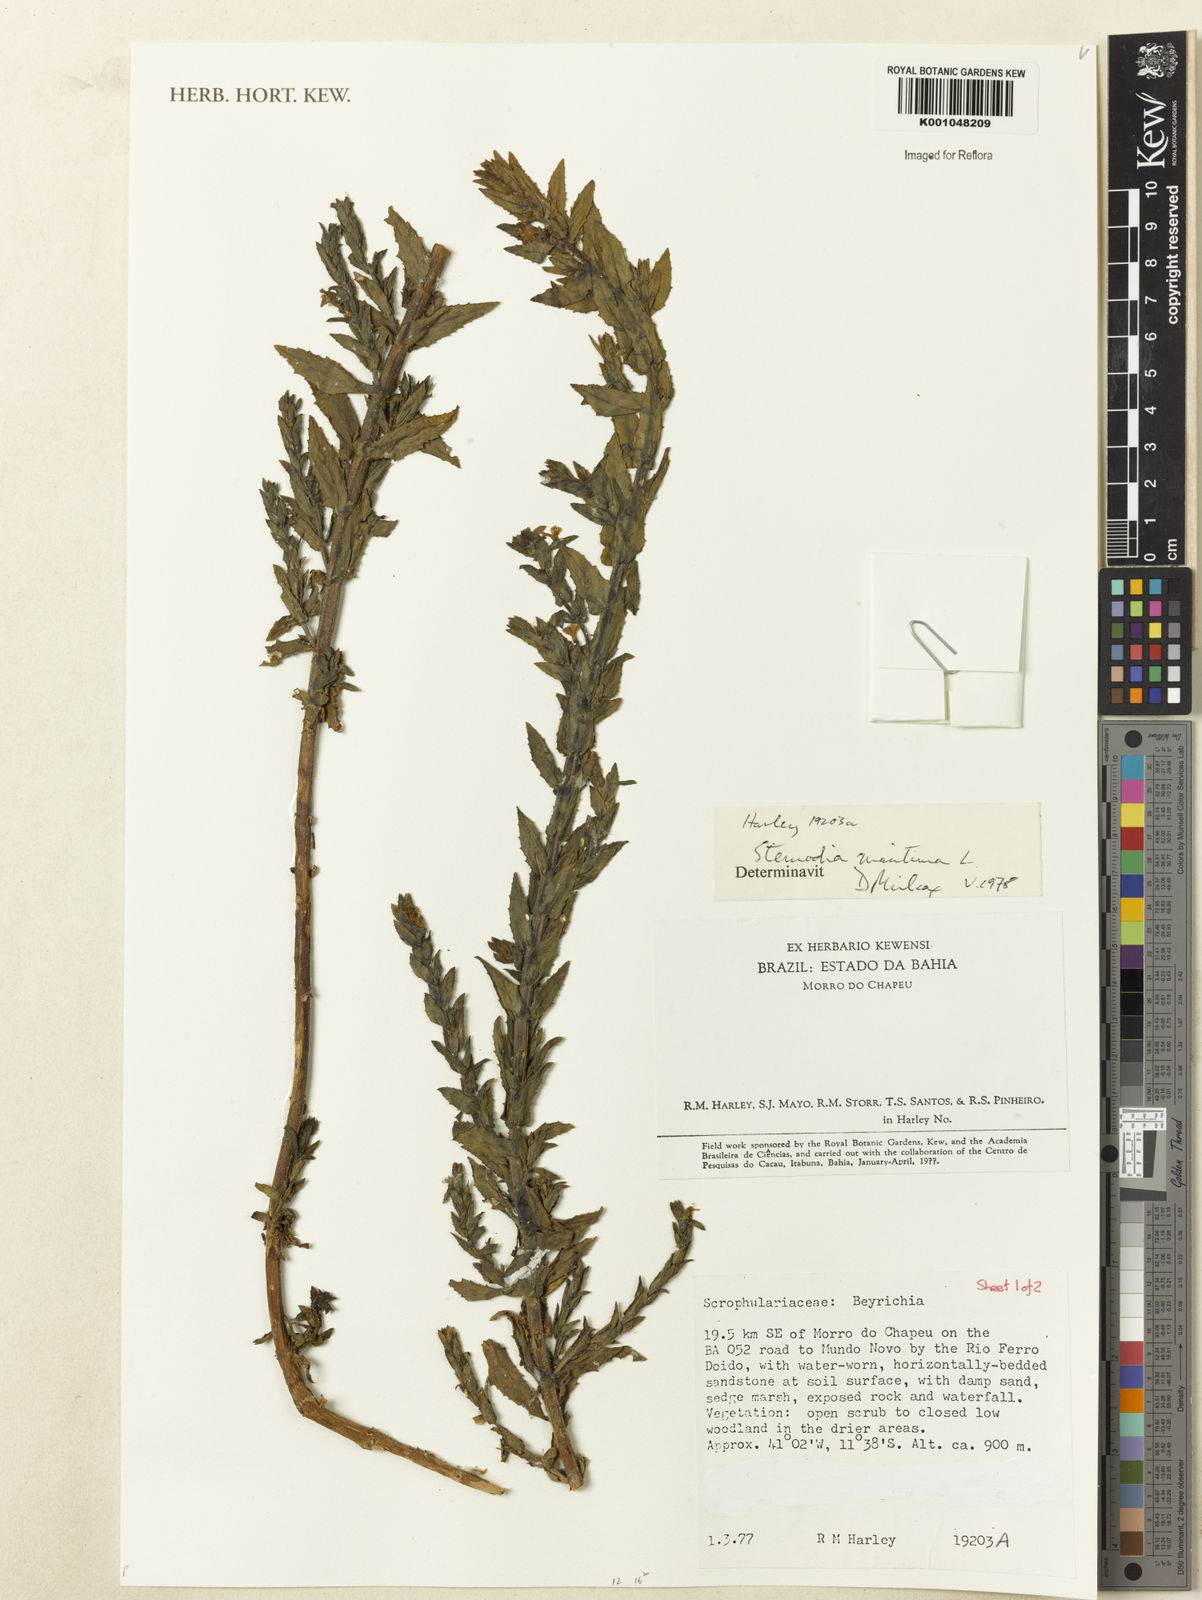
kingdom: Plantae
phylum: Tracheophyta
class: Magnoliopsida
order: Lamiales
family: Plantaginaceae
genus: Stemodia
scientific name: Stemodia maritima
